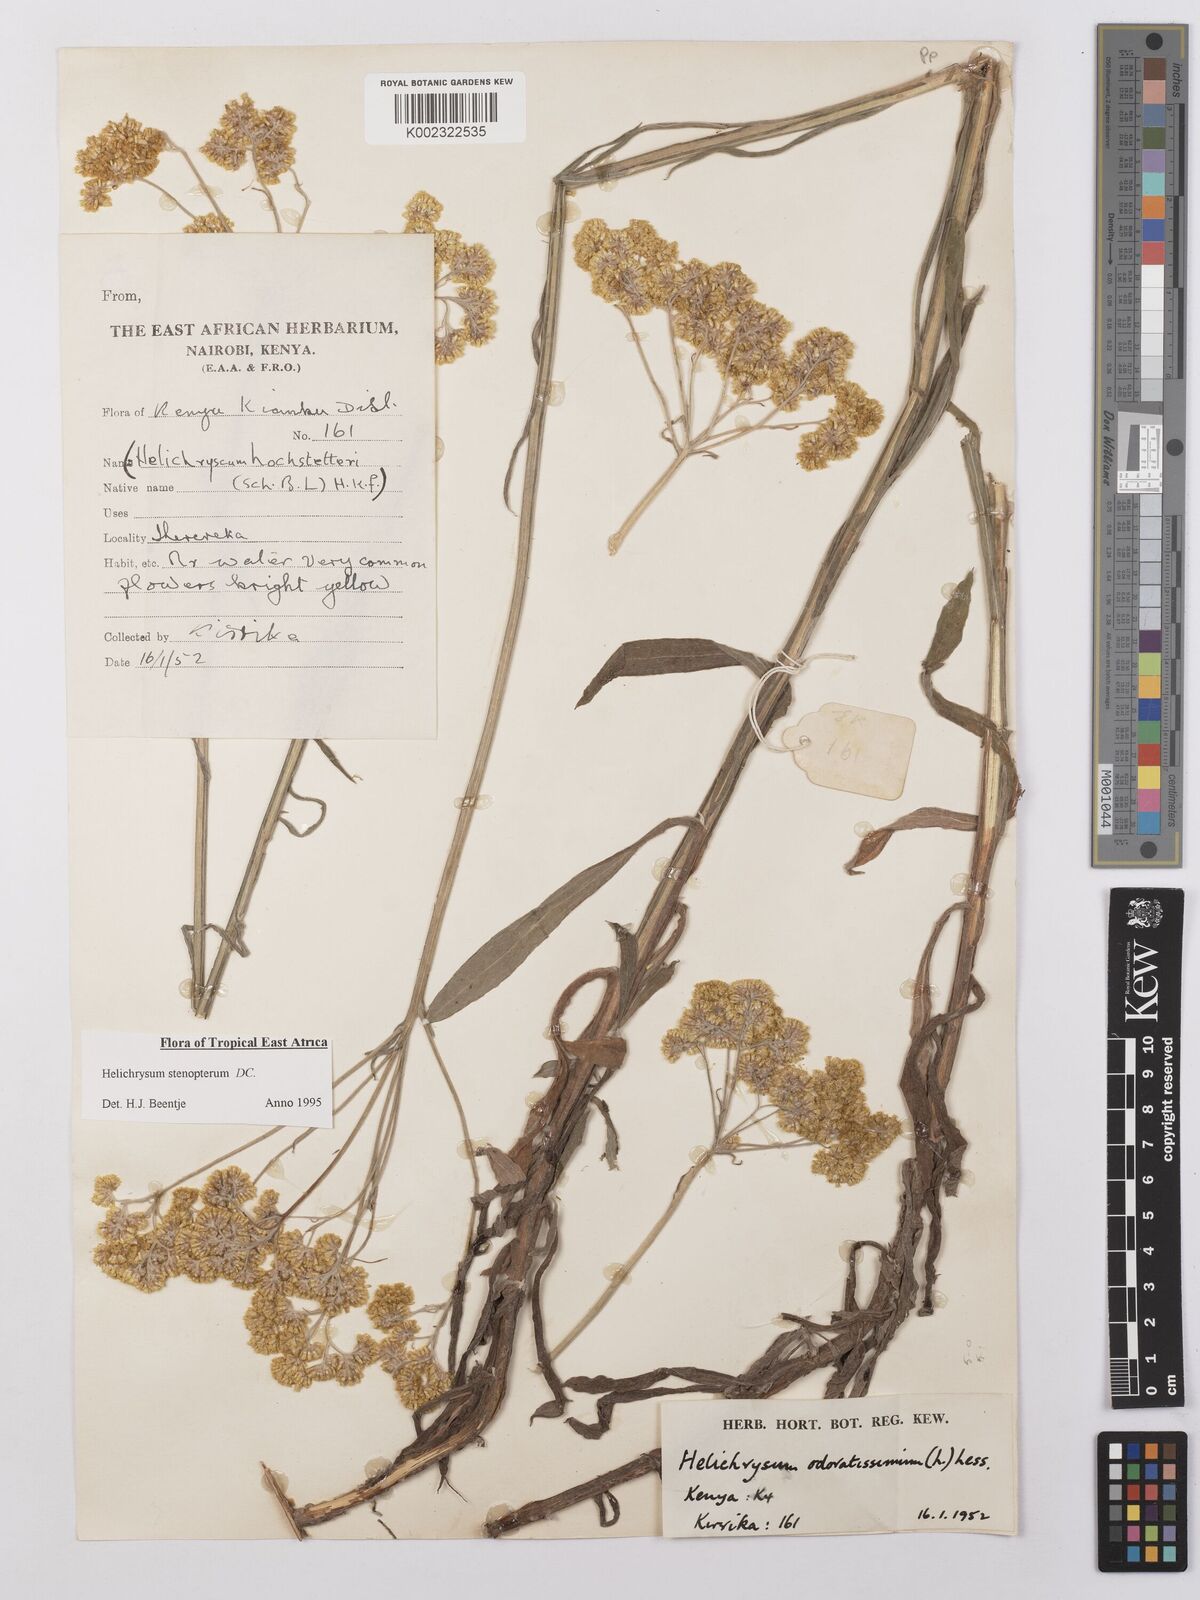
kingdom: Plantae
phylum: Tracheophyta
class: Magnoliopsida
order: Asterales
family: Asteraceae
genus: Helichrysum
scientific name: Helichrysum stenopterum
